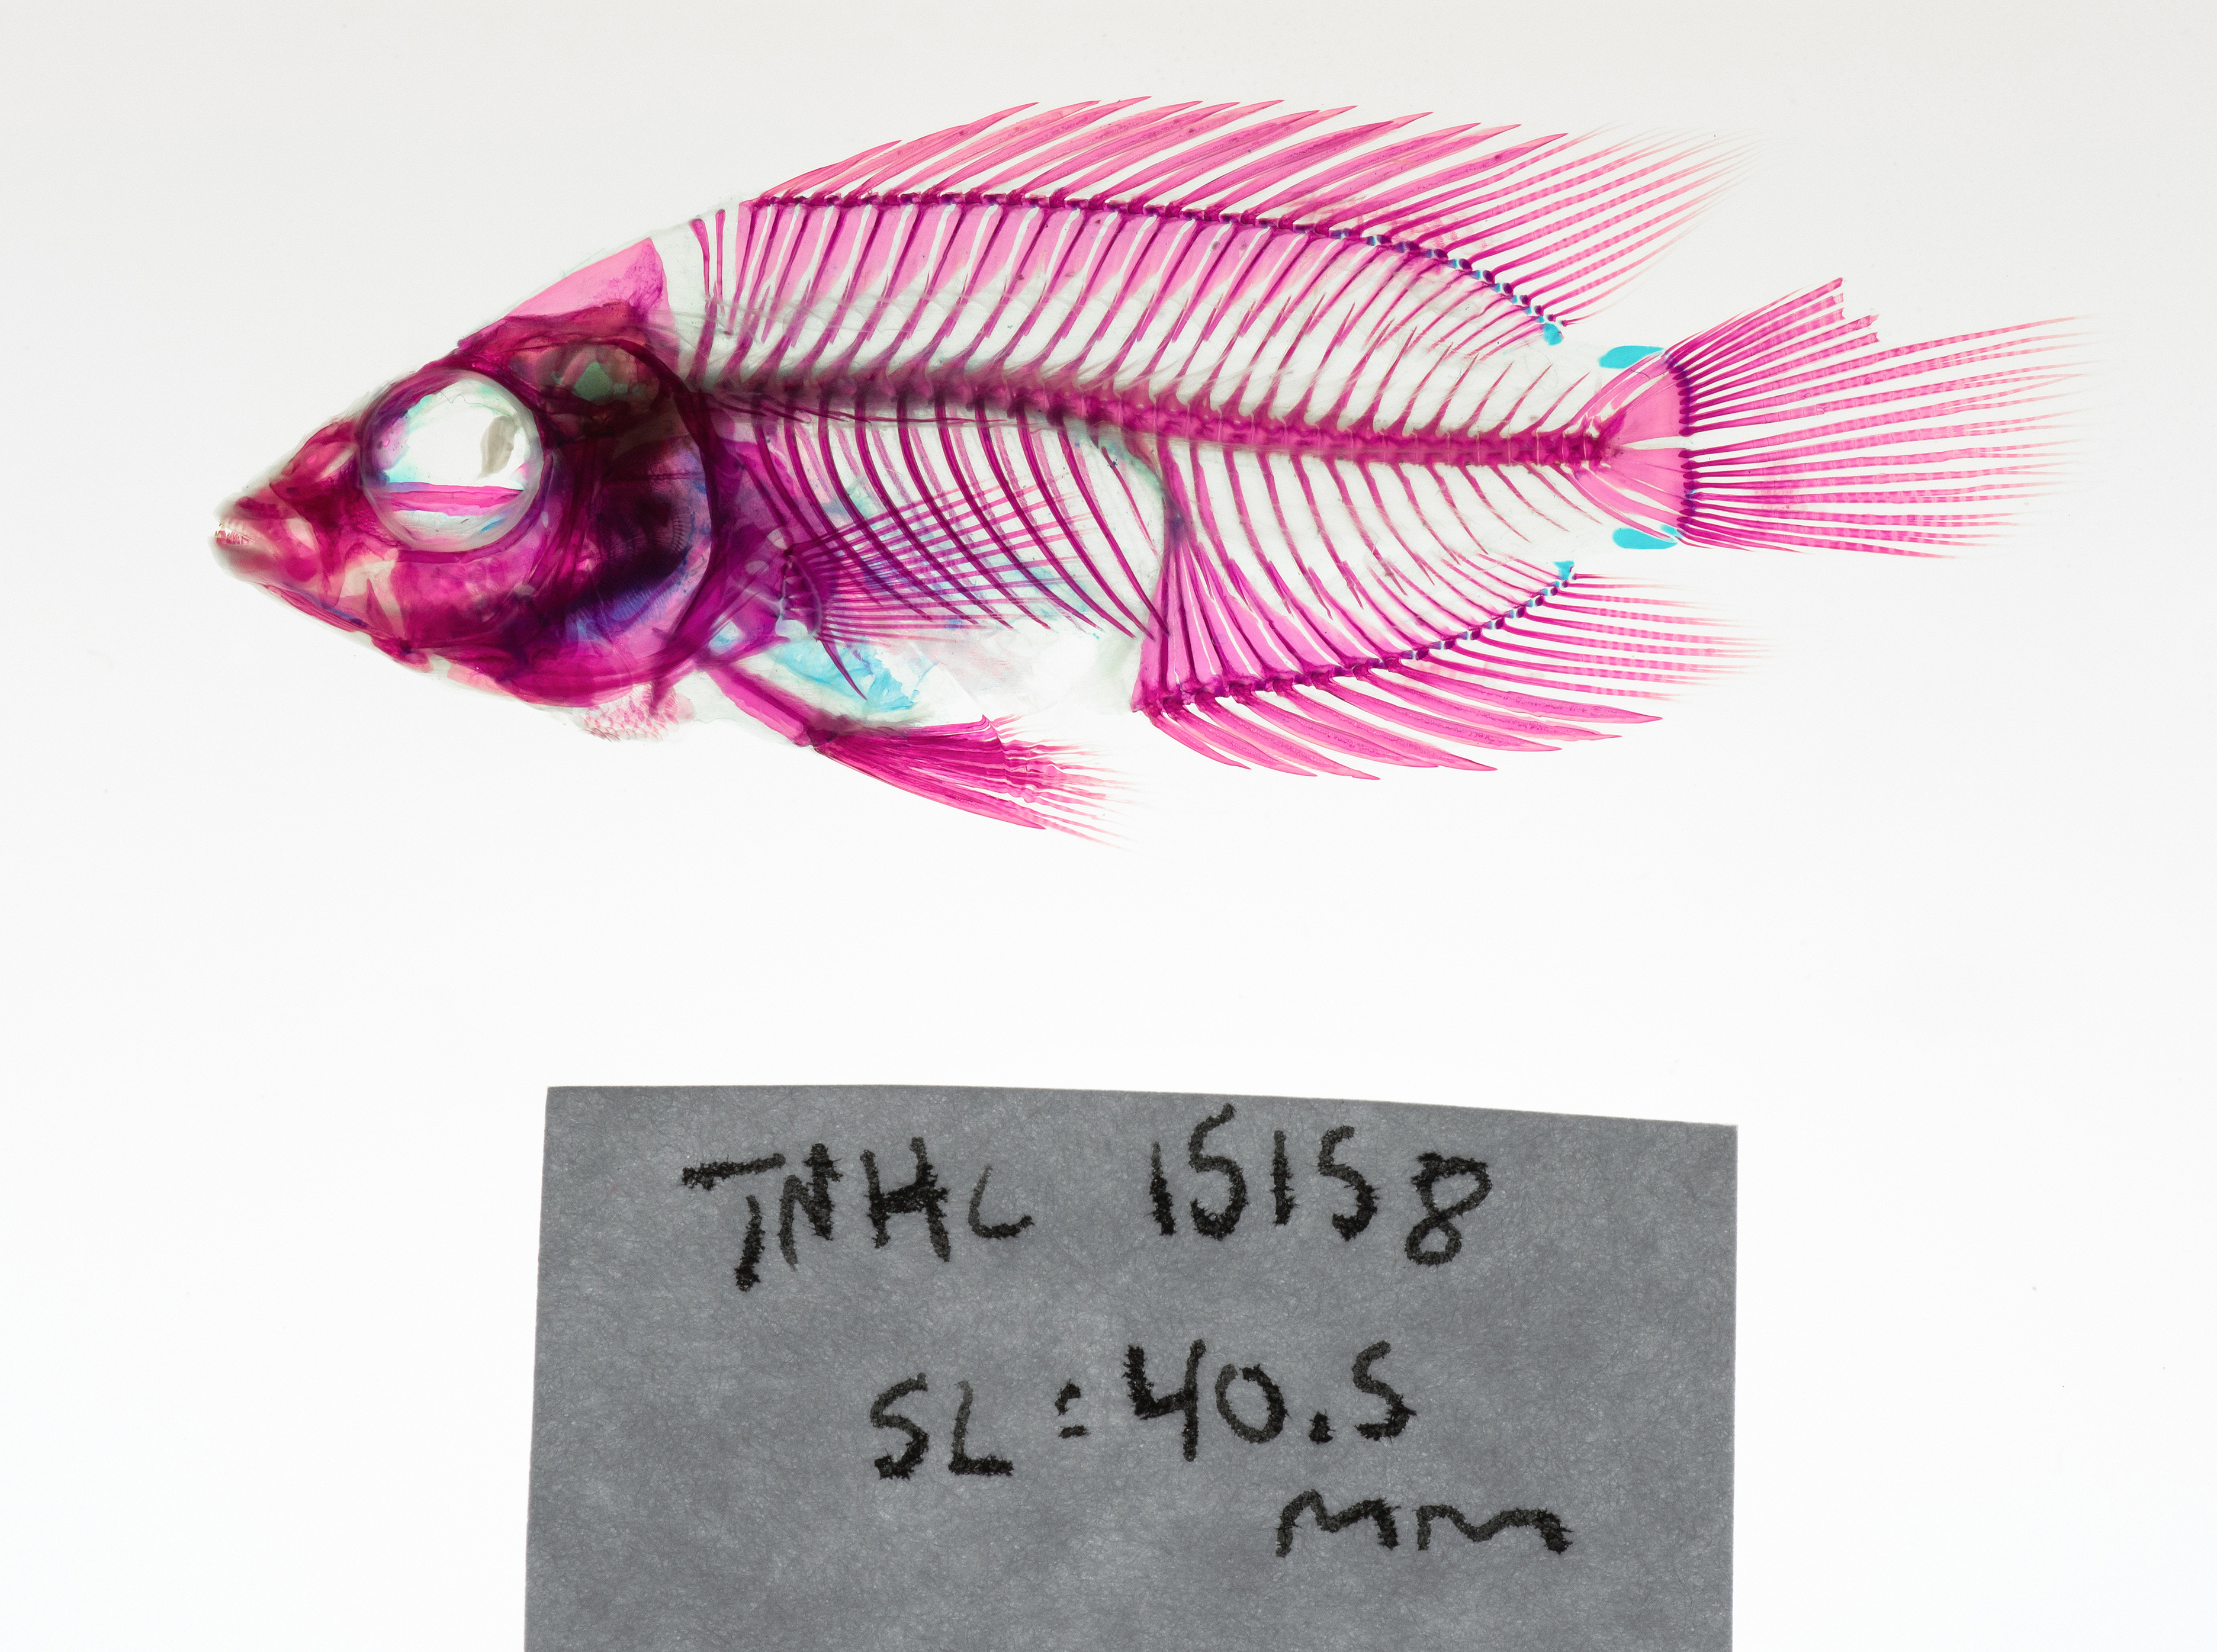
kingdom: Animalia
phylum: Chordata
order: Perciformes
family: Cichlidae
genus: Trichromis
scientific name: Trichromis salvini
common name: Yellow belly cichlid
